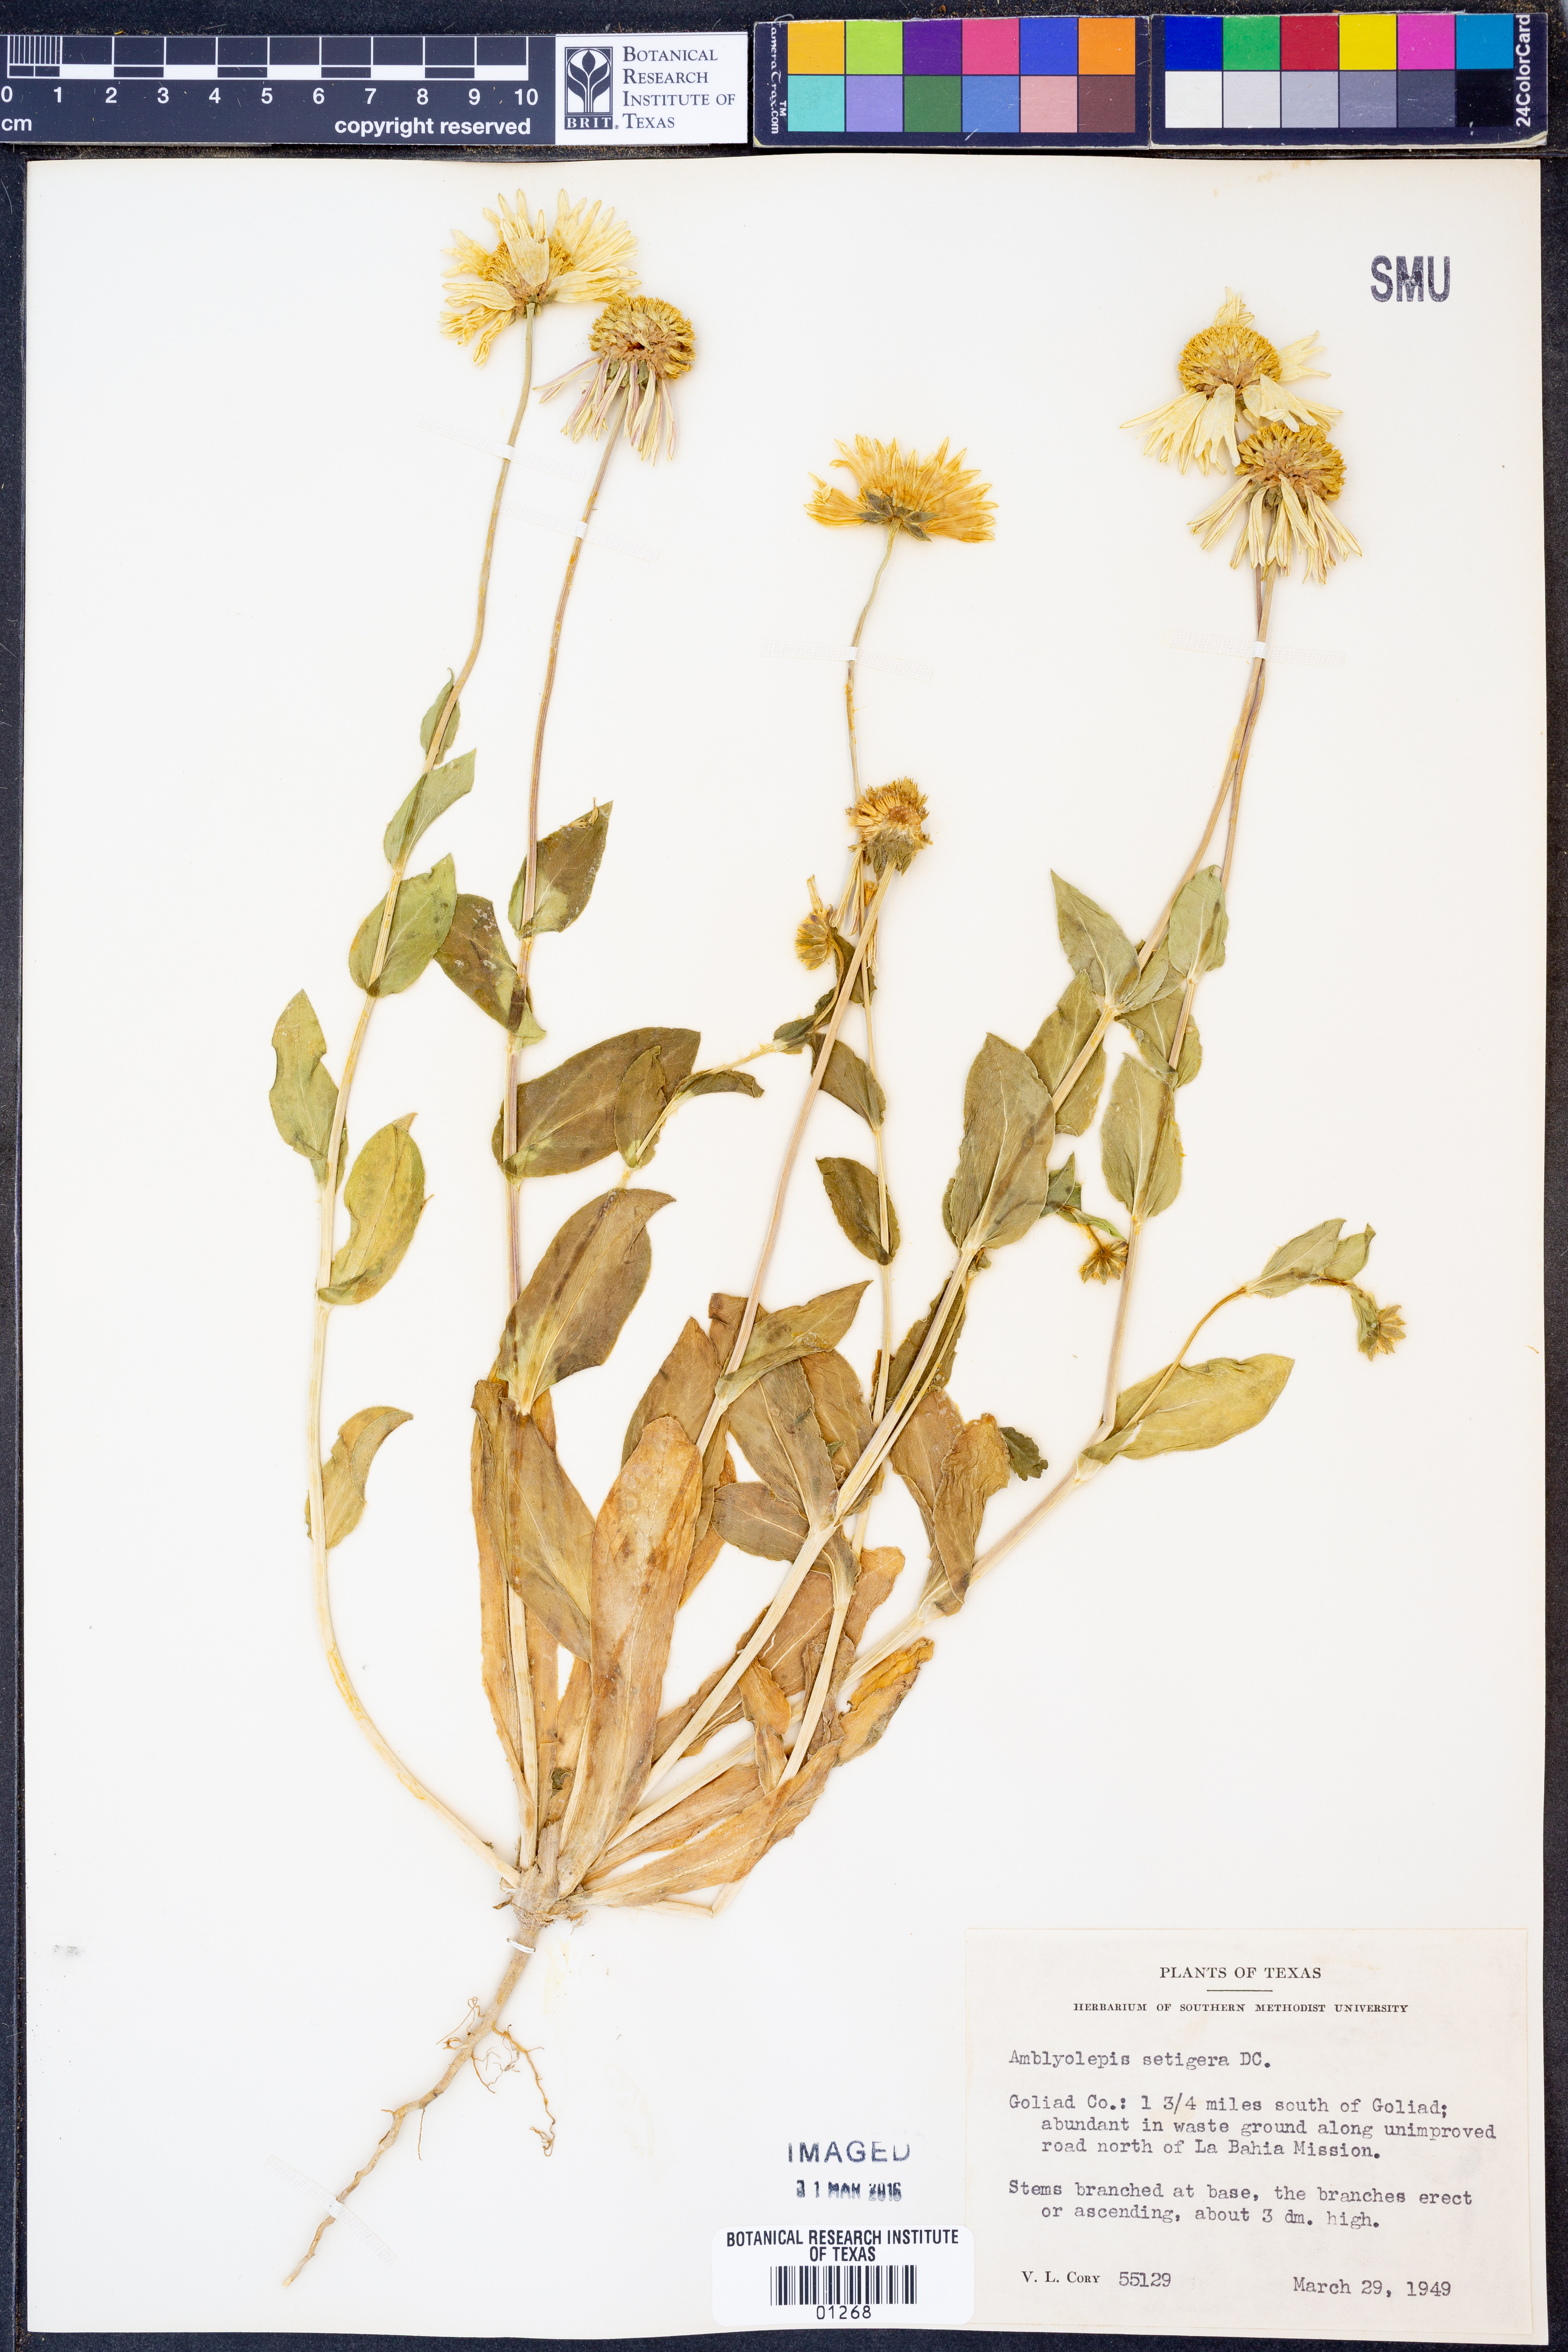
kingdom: Plantae
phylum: Tracheophyta
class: Magnoliopsida
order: Asterales
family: Asteraceae
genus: Amblyolepis
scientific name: Amblyolepis setigera
